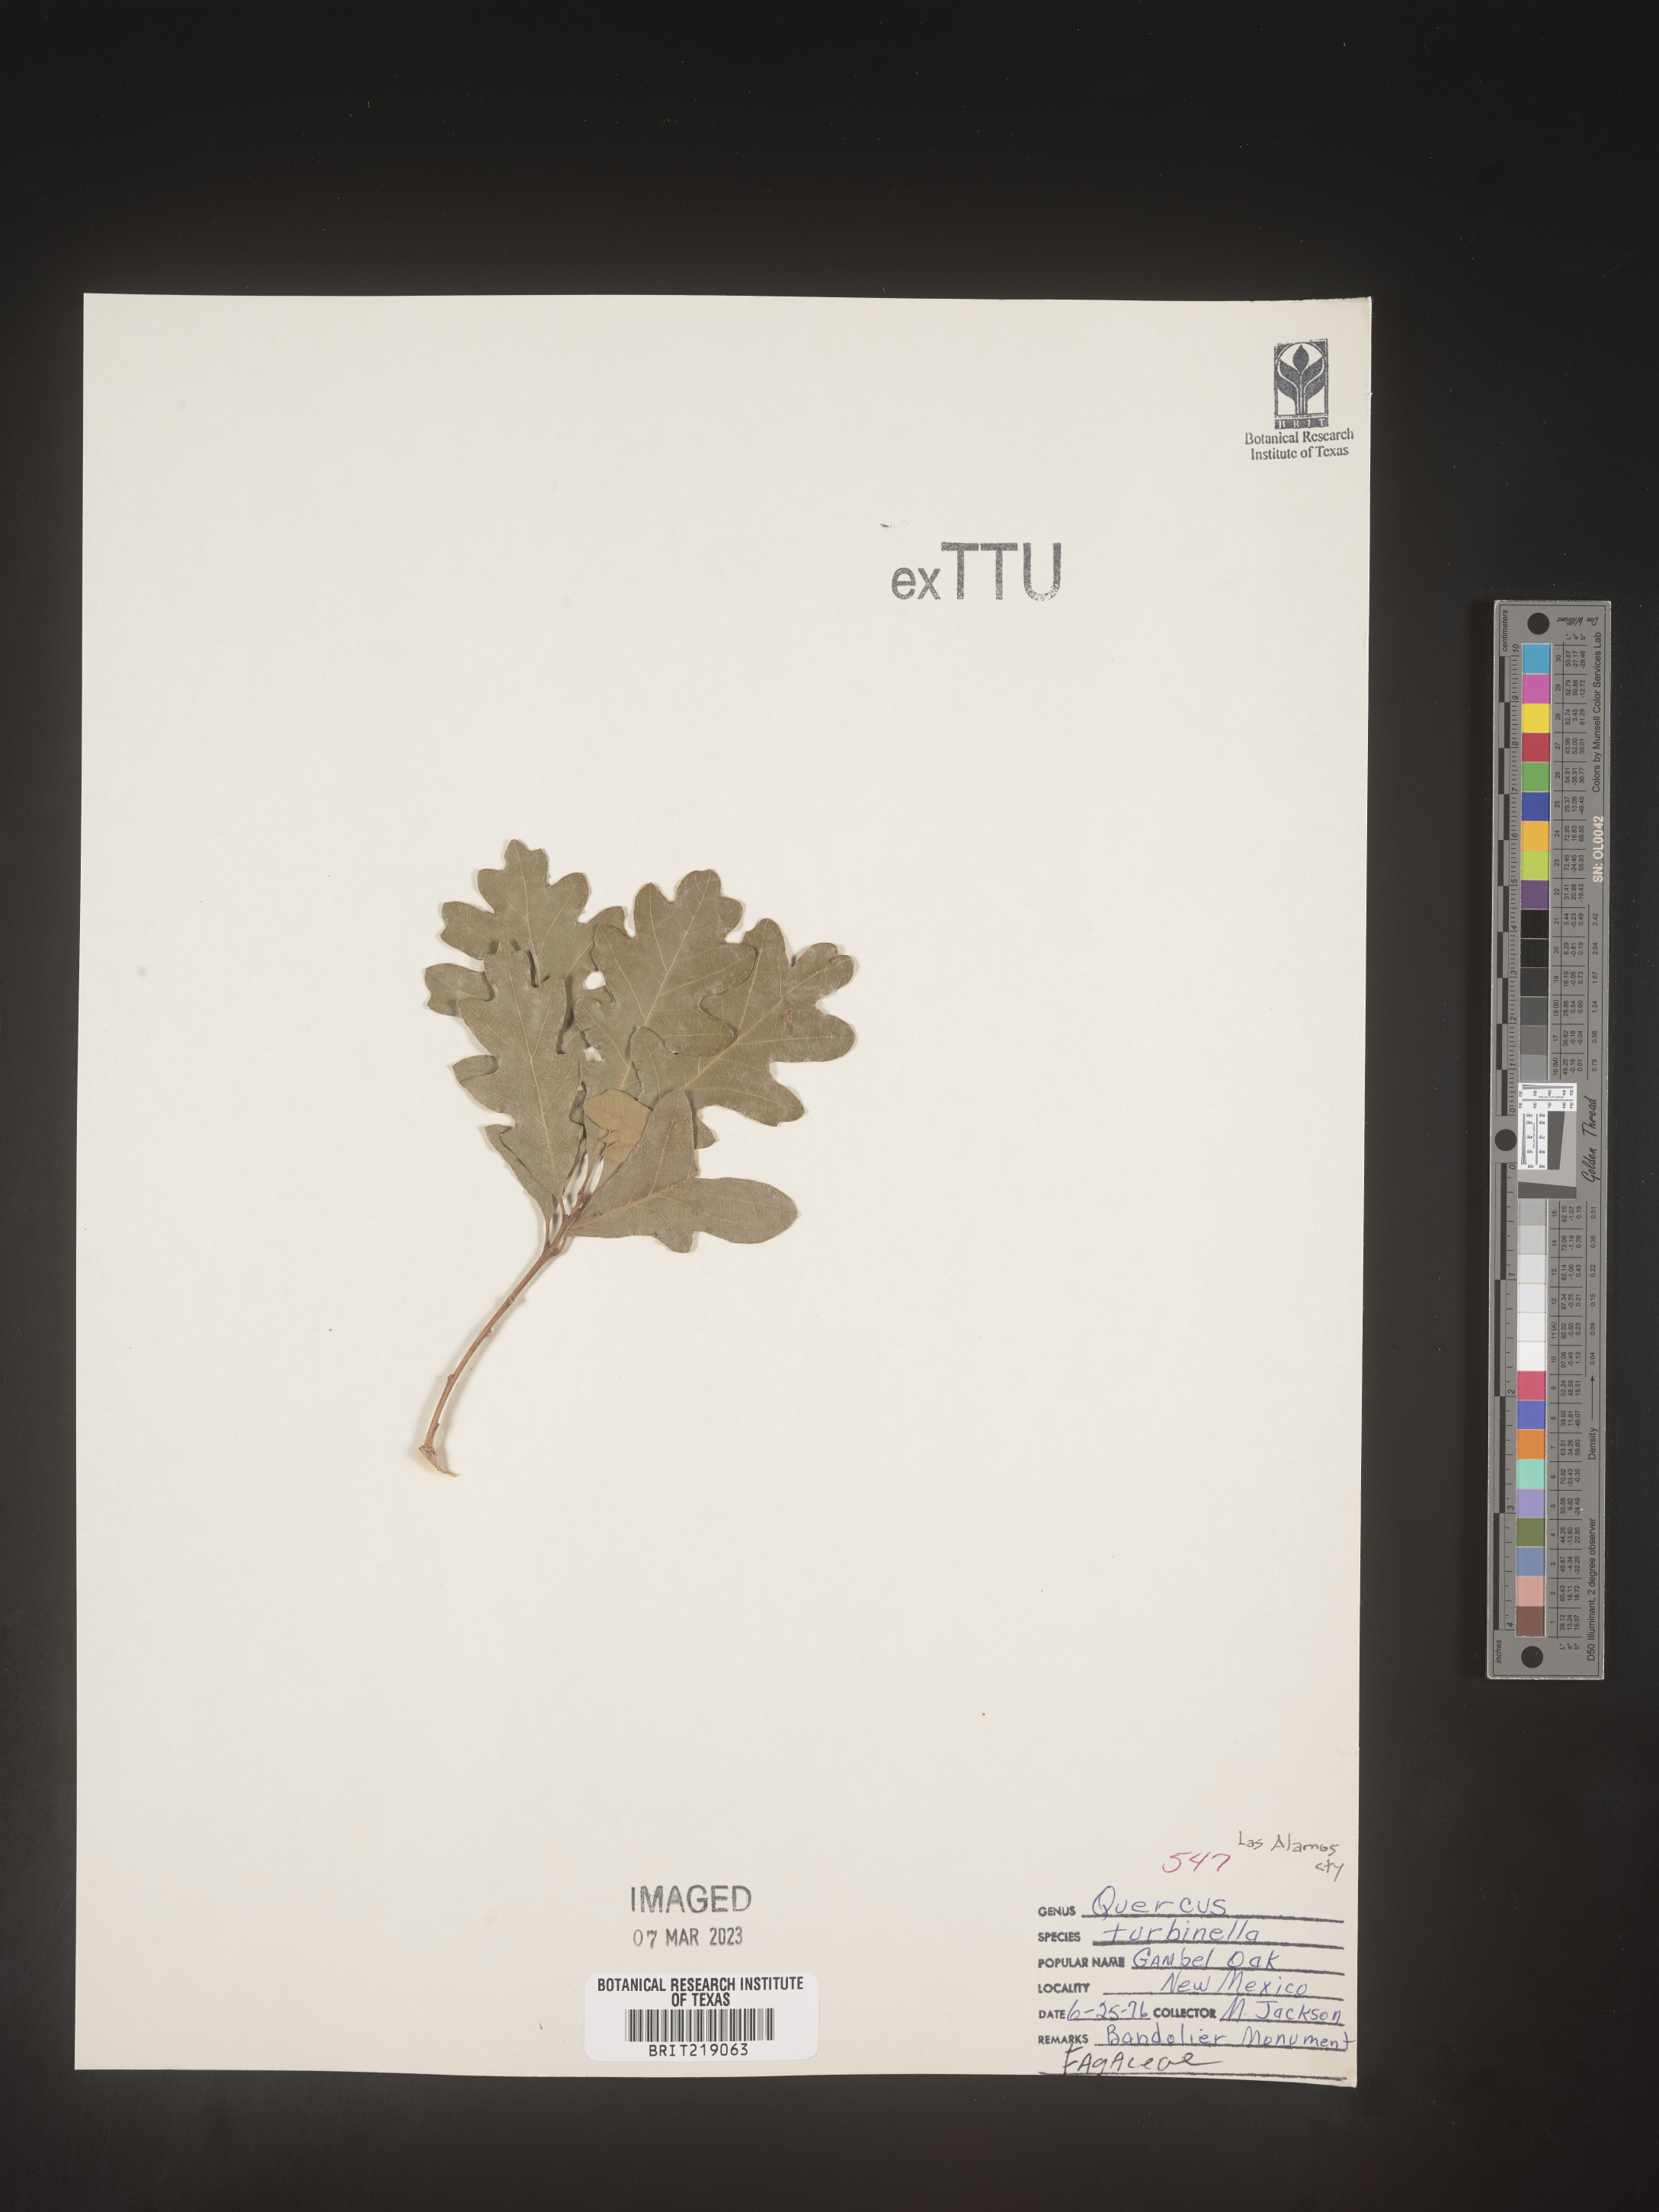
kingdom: Plantae
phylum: Tracheophyta
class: Magnoliopsida
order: Fagales
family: Fagaceae
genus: Quercus
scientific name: Quercus turbinella
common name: Sonoran scrub oak
